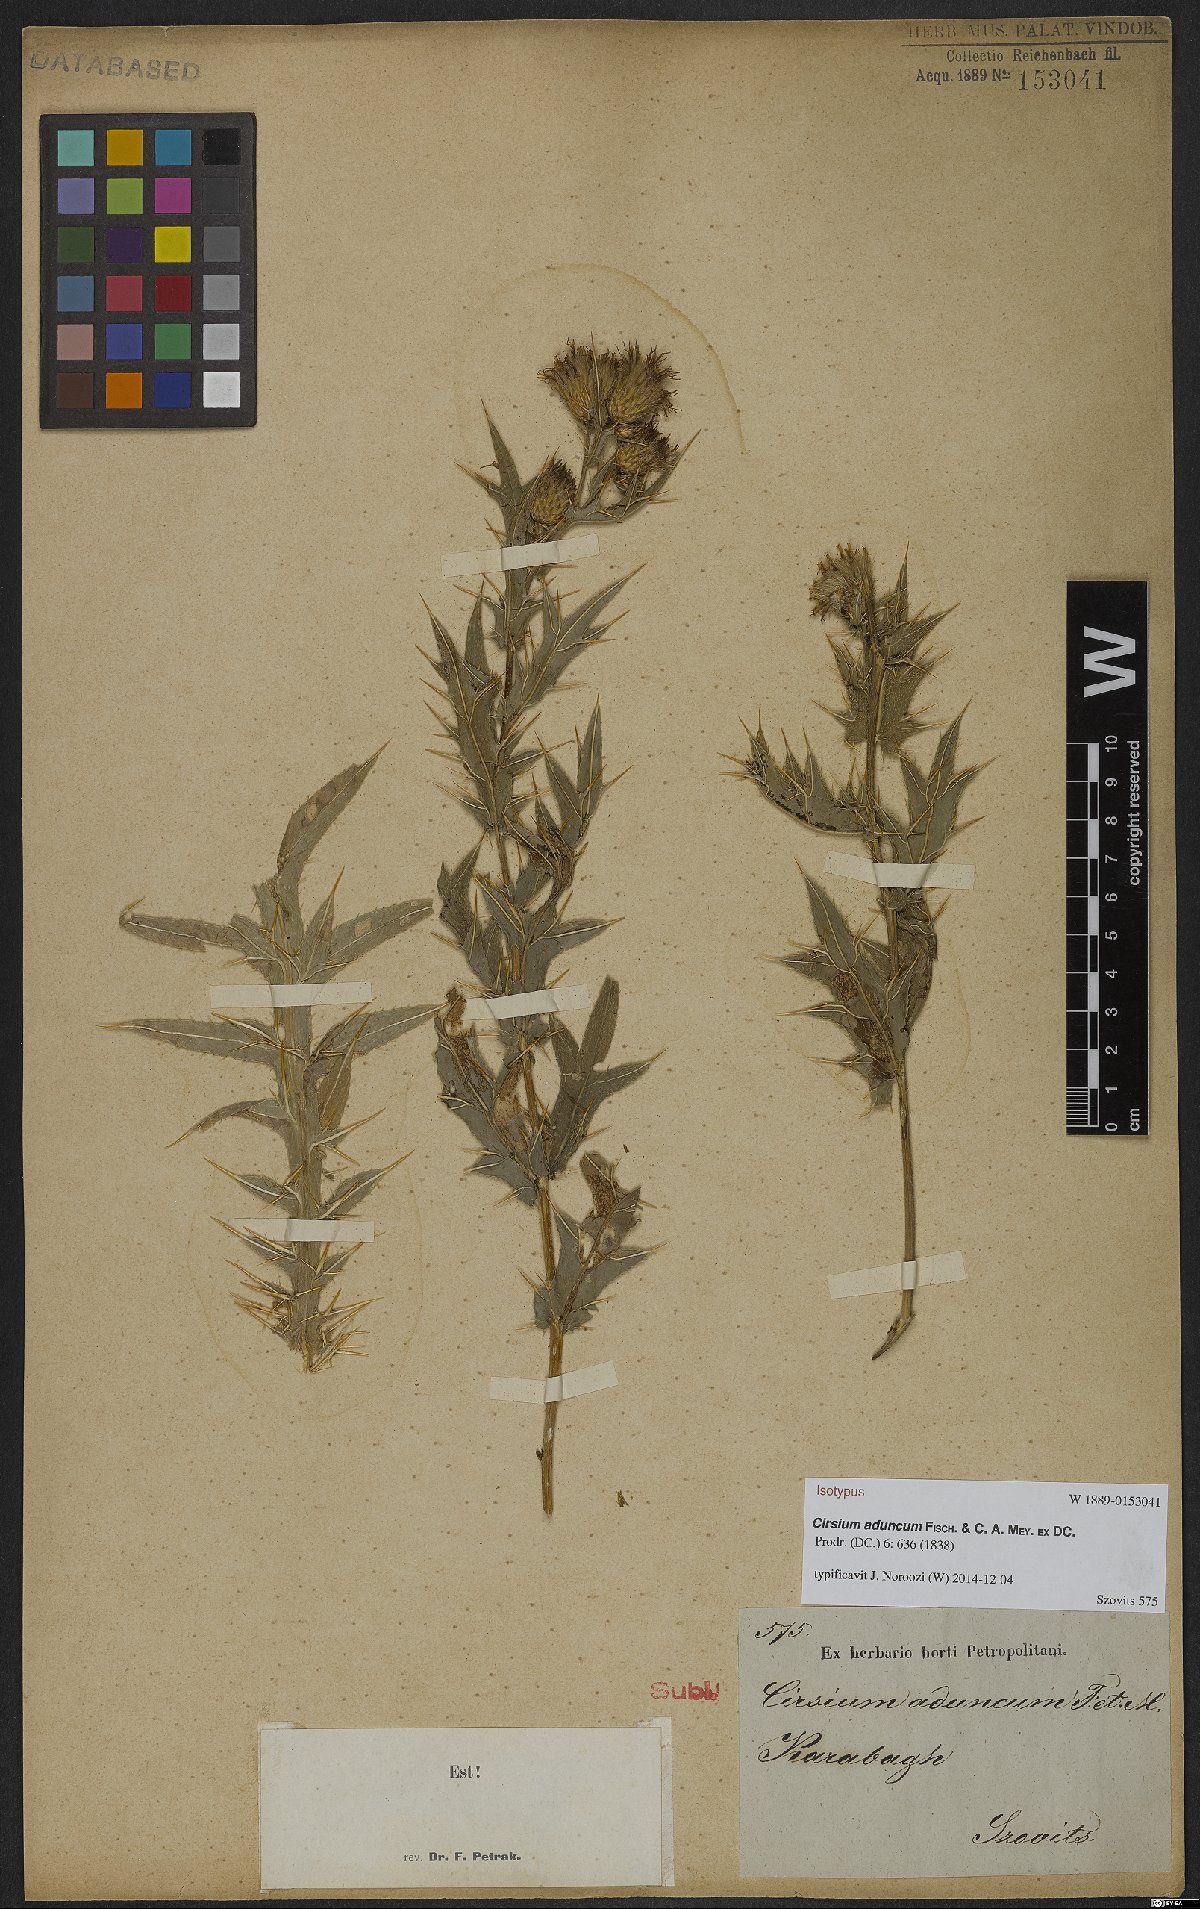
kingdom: Plantae
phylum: Tracheophyta
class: Magnoliopsida
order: Asterales
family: Asteraceae
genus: Lophiolepis
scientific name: Lophiolepis adunca
